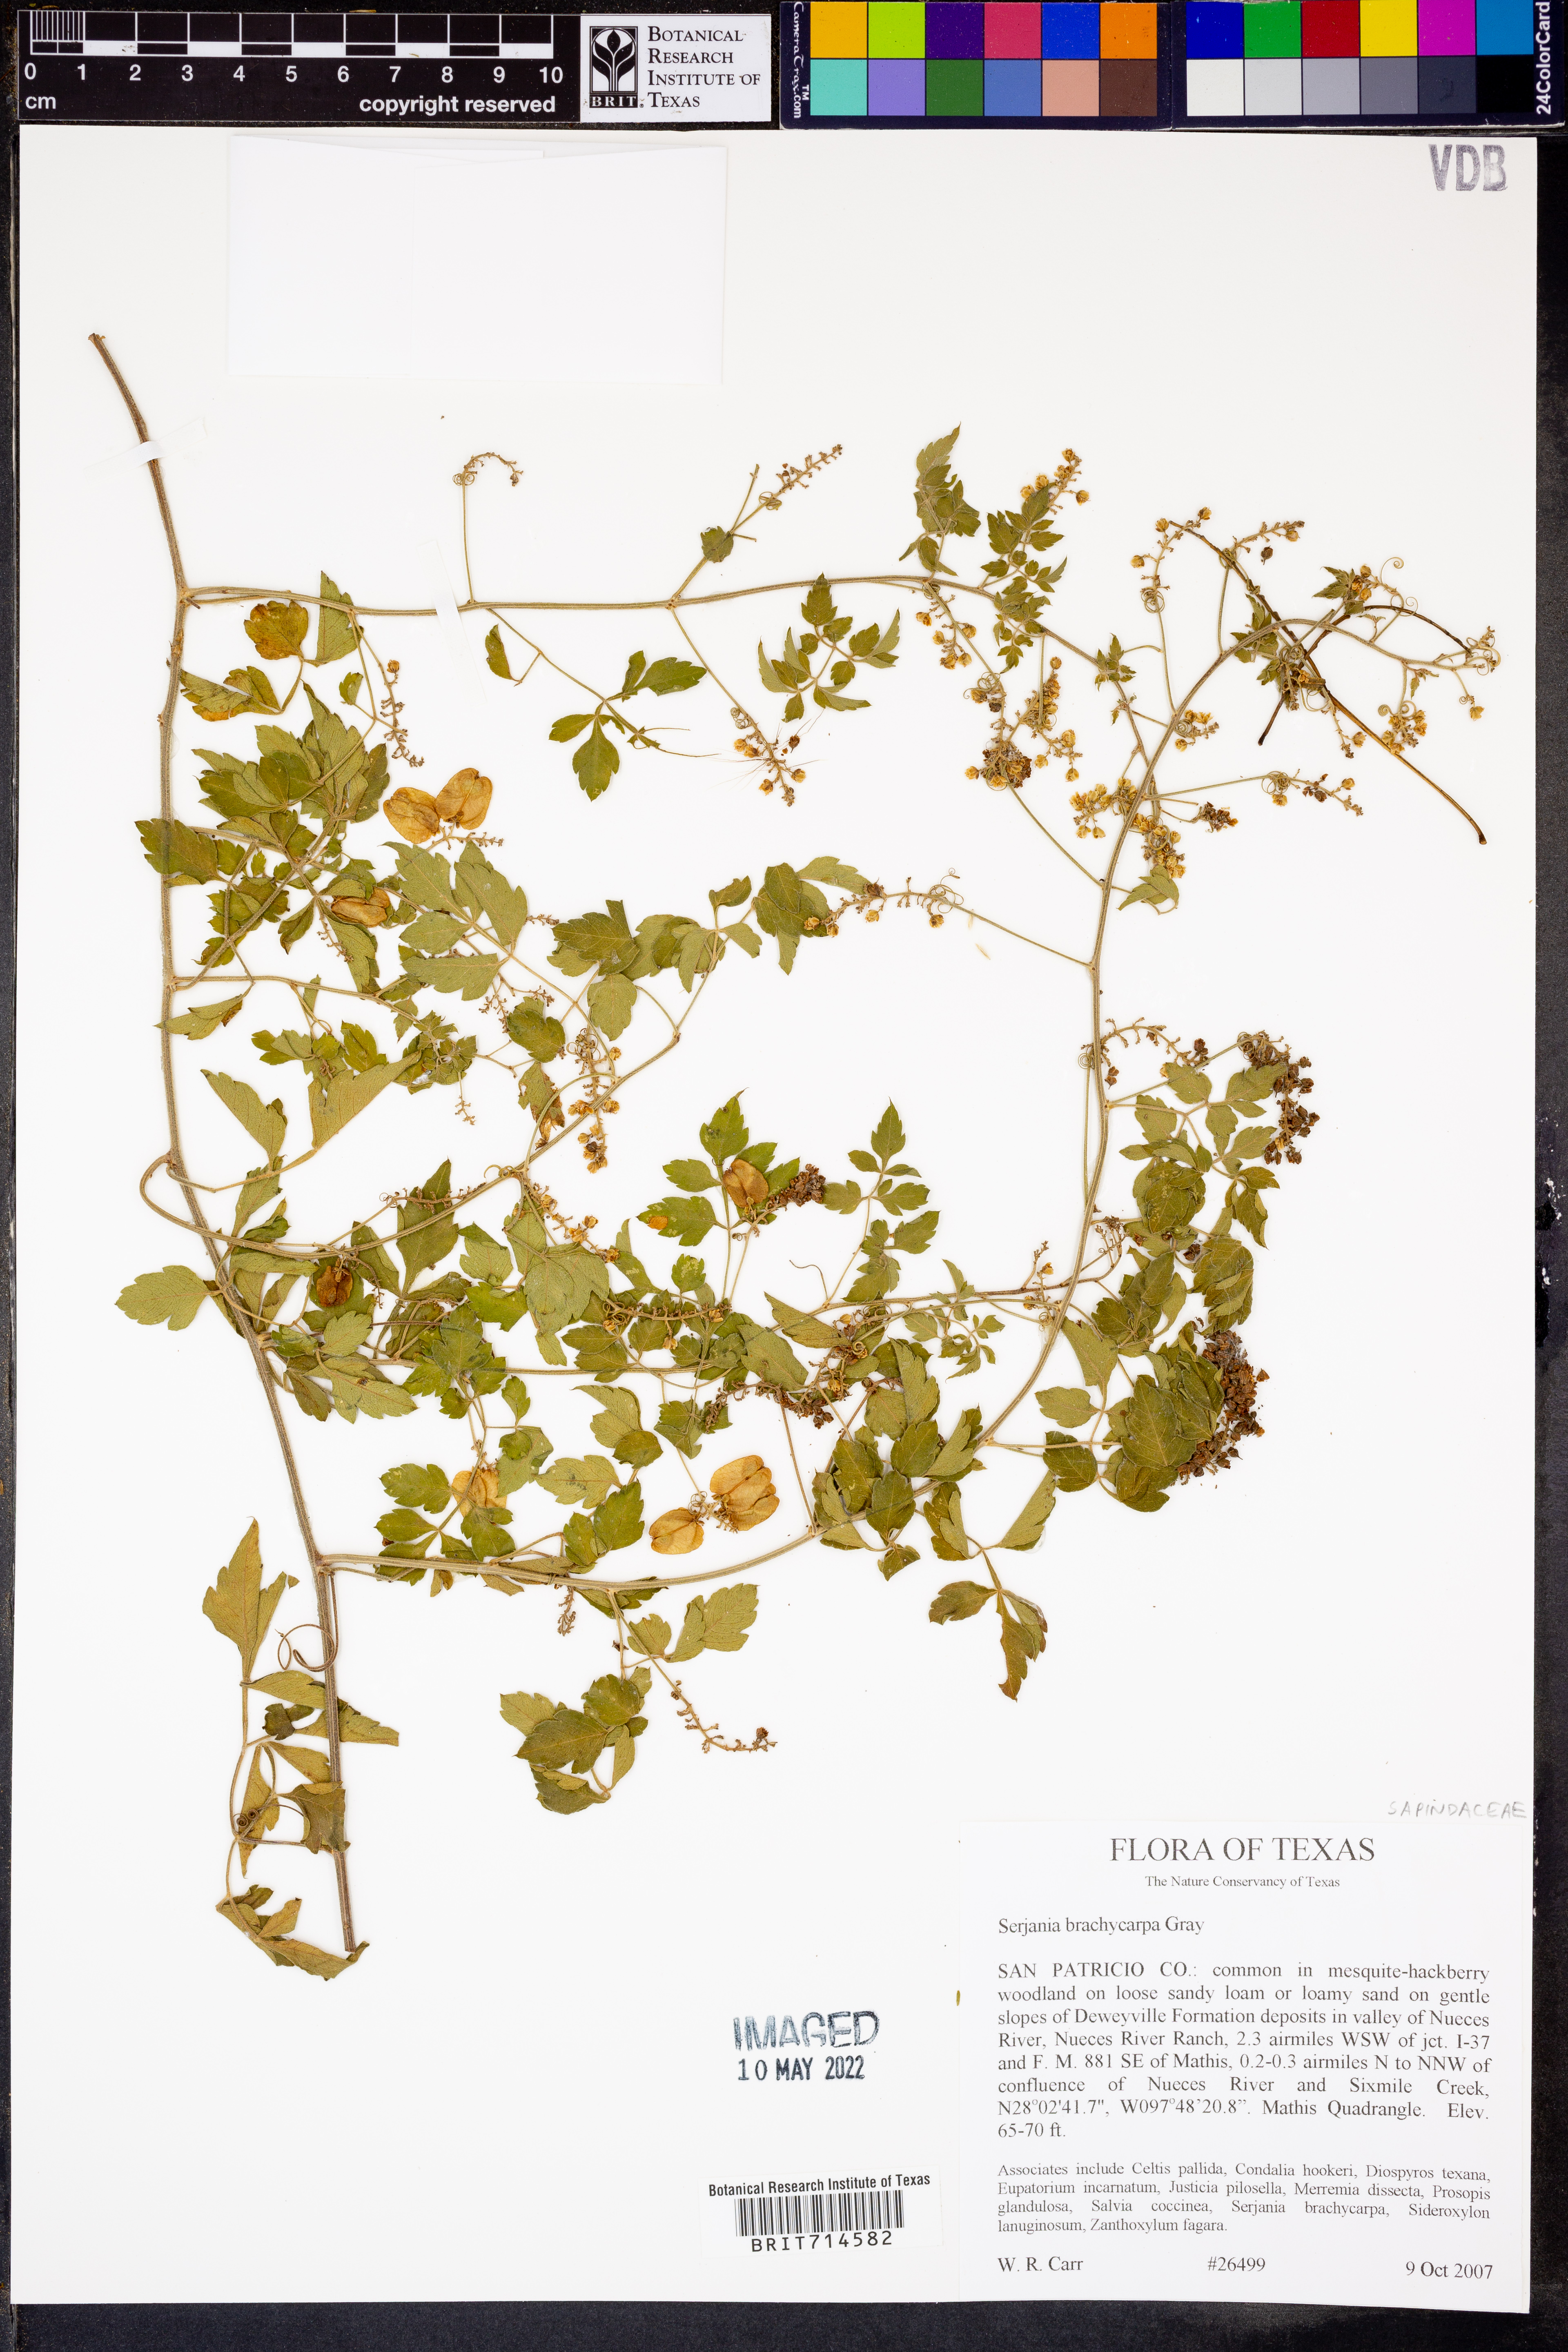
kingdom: Plantae
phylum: Tracheophyta
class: Magnoliopsida
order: Sapindales
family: Sapindaceae
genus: Serjania
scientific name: Serjania brachycarpa
